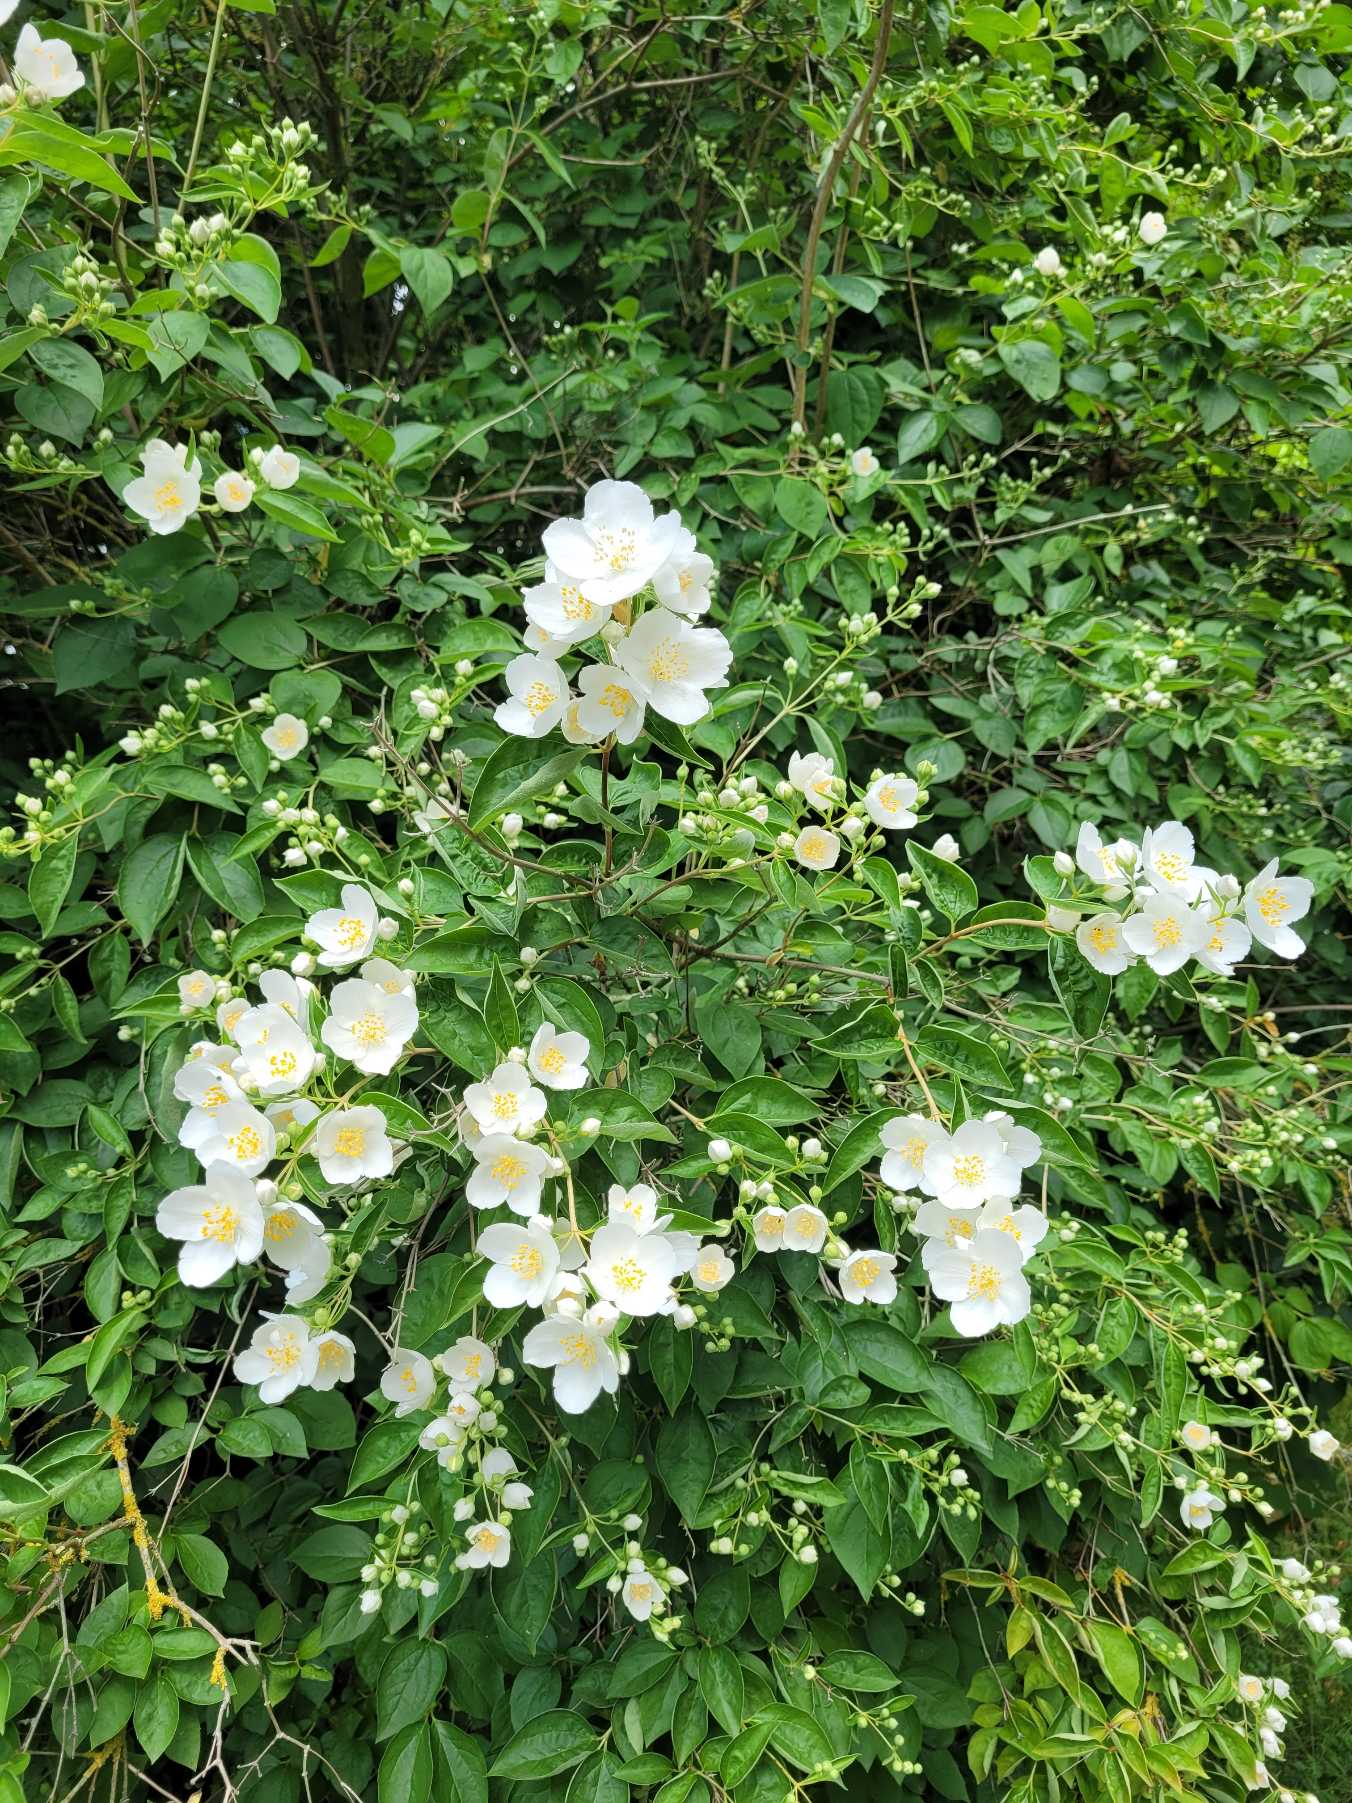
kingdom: Plantae
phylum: Tracheophyta
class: Magnoliopsida
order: Cornales
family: Hydrangeaceae
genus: Philadelphus
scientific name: Philadelphus
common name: Pibevedslægten
